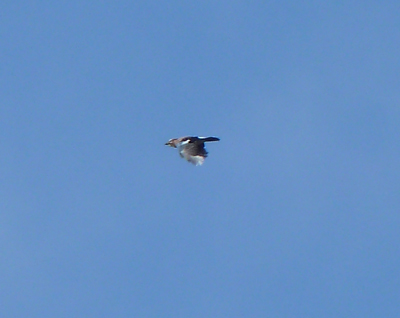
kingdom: Animalia
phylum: Chordata
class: Aves
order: Passeriformes
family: Corvidae
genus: Garrulus
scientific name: Garrulus glandarius
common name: Eurasian jay
